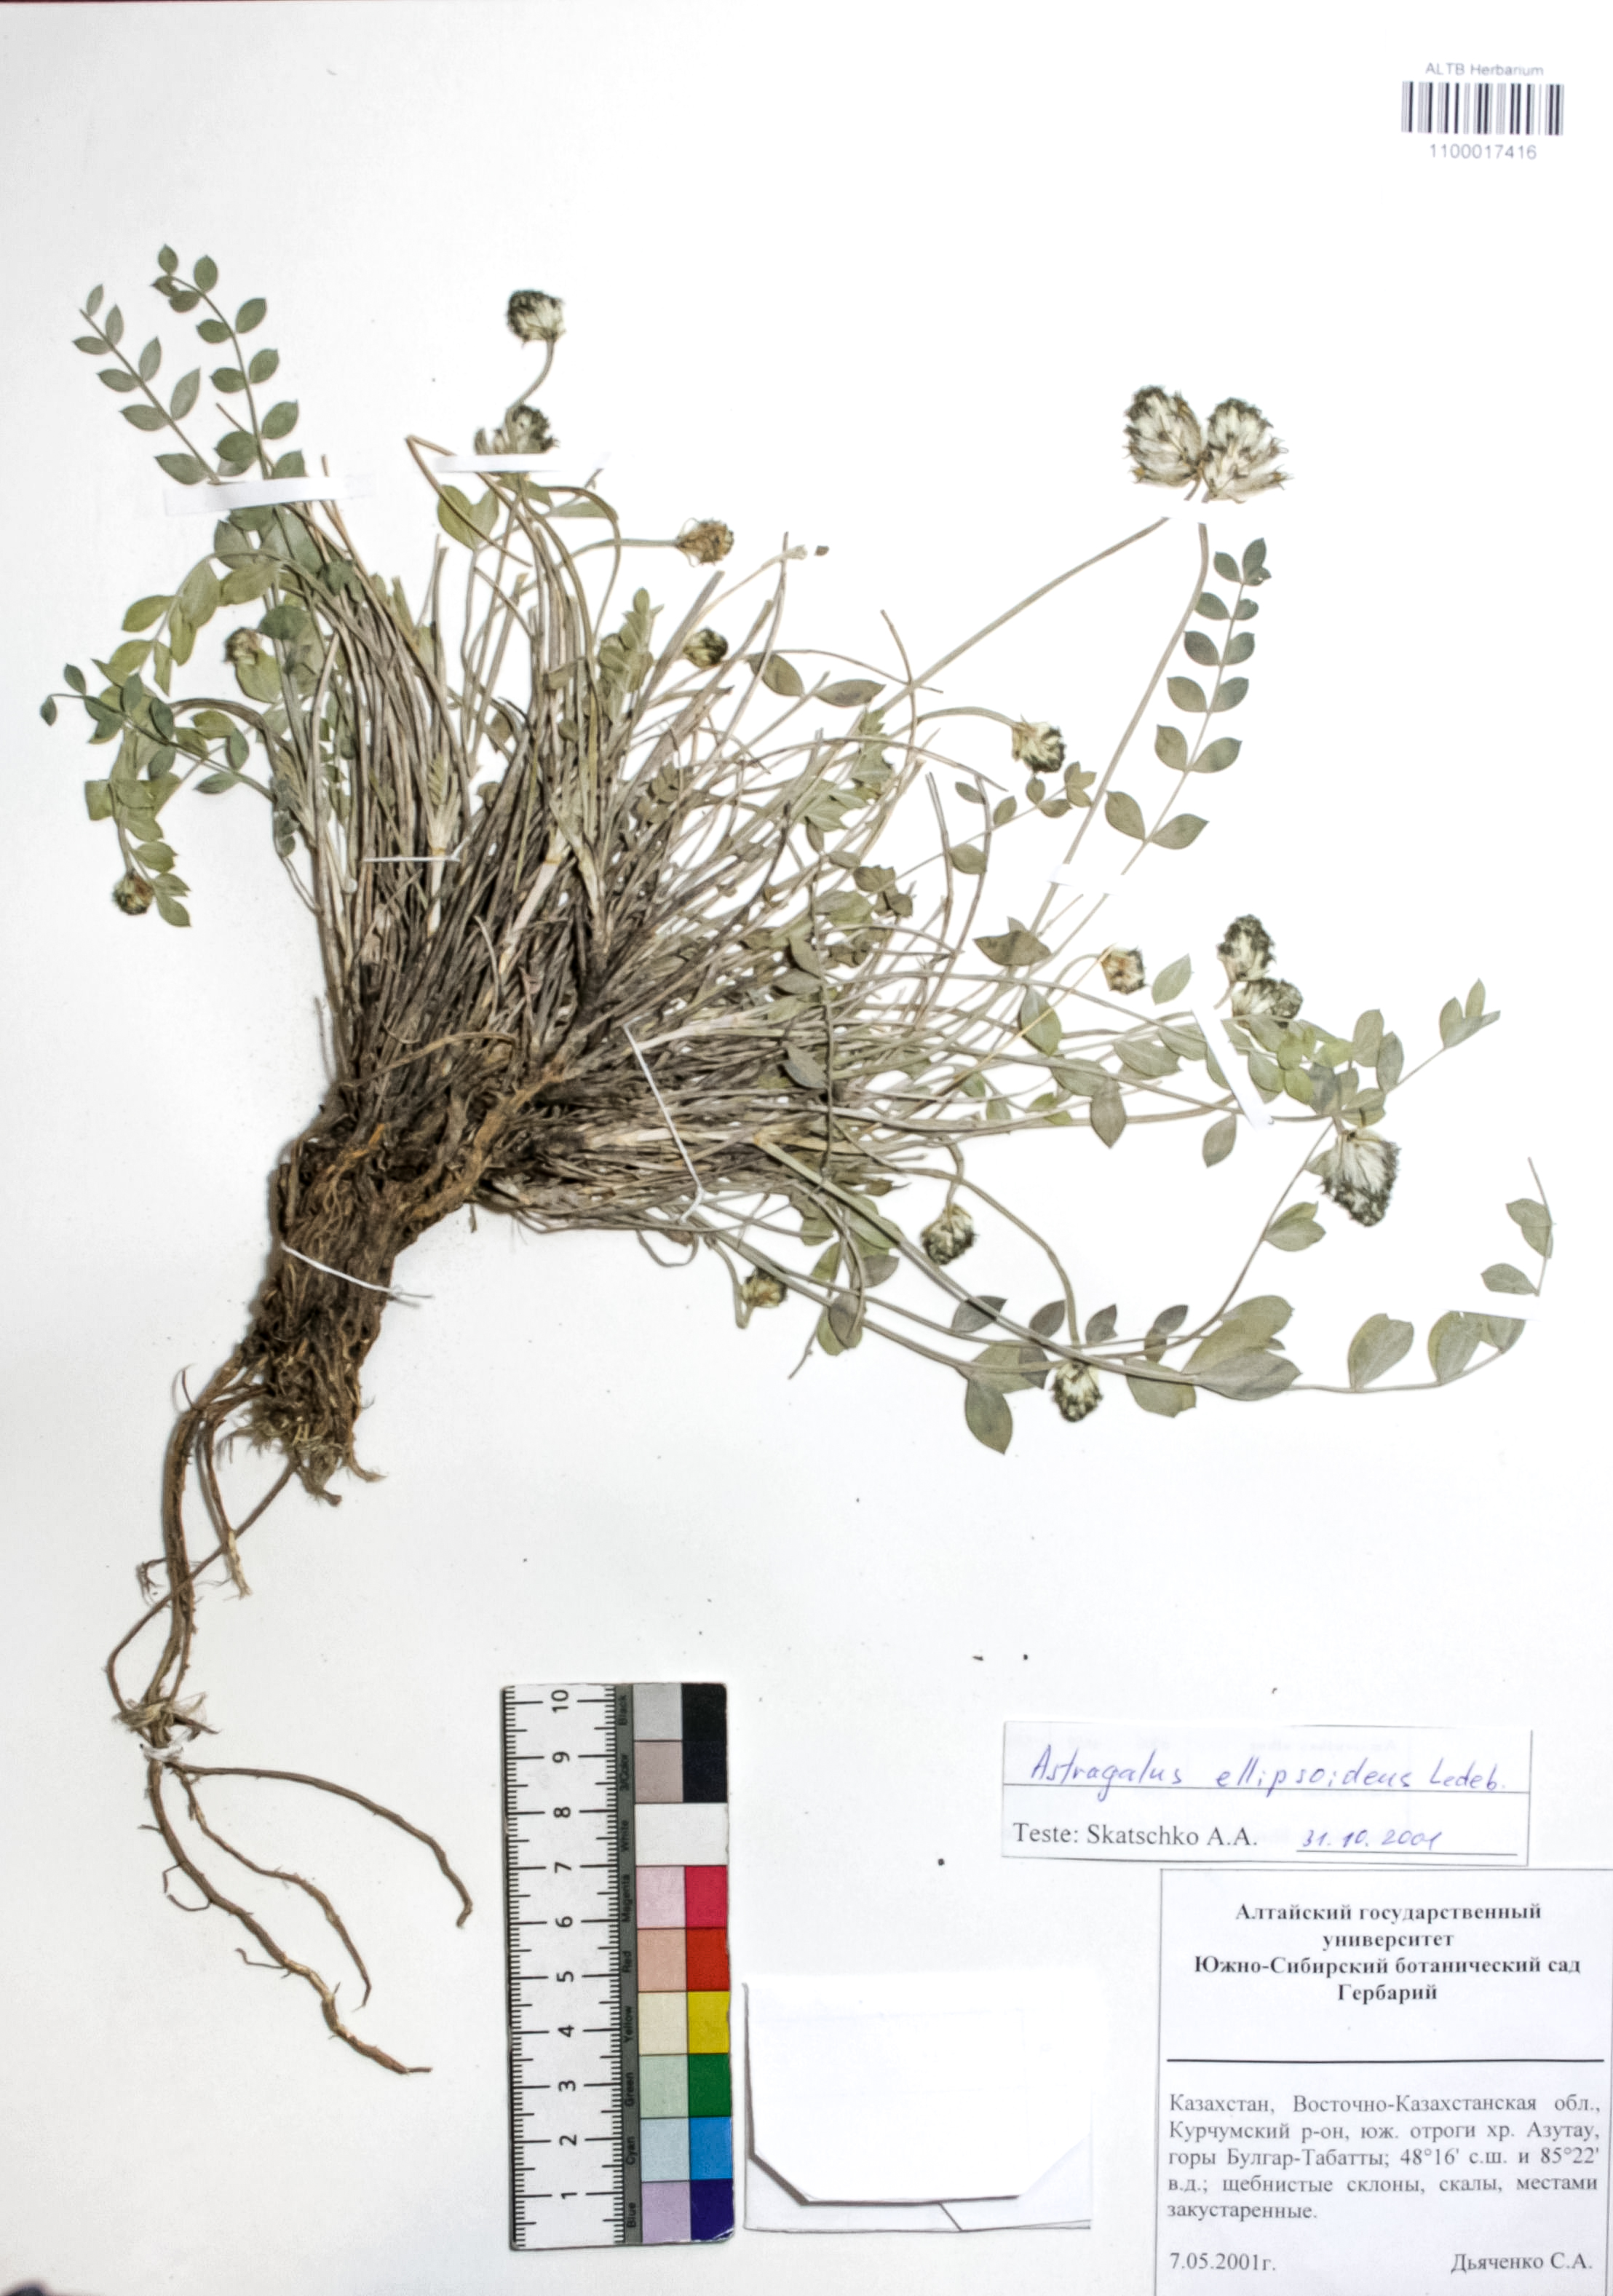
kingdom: Plantae
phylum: Tracheophyta
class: Magnoliopsida
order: Fabales
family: Fabaceae
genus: Astragalus
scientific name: Astragalus ellipsoideus
